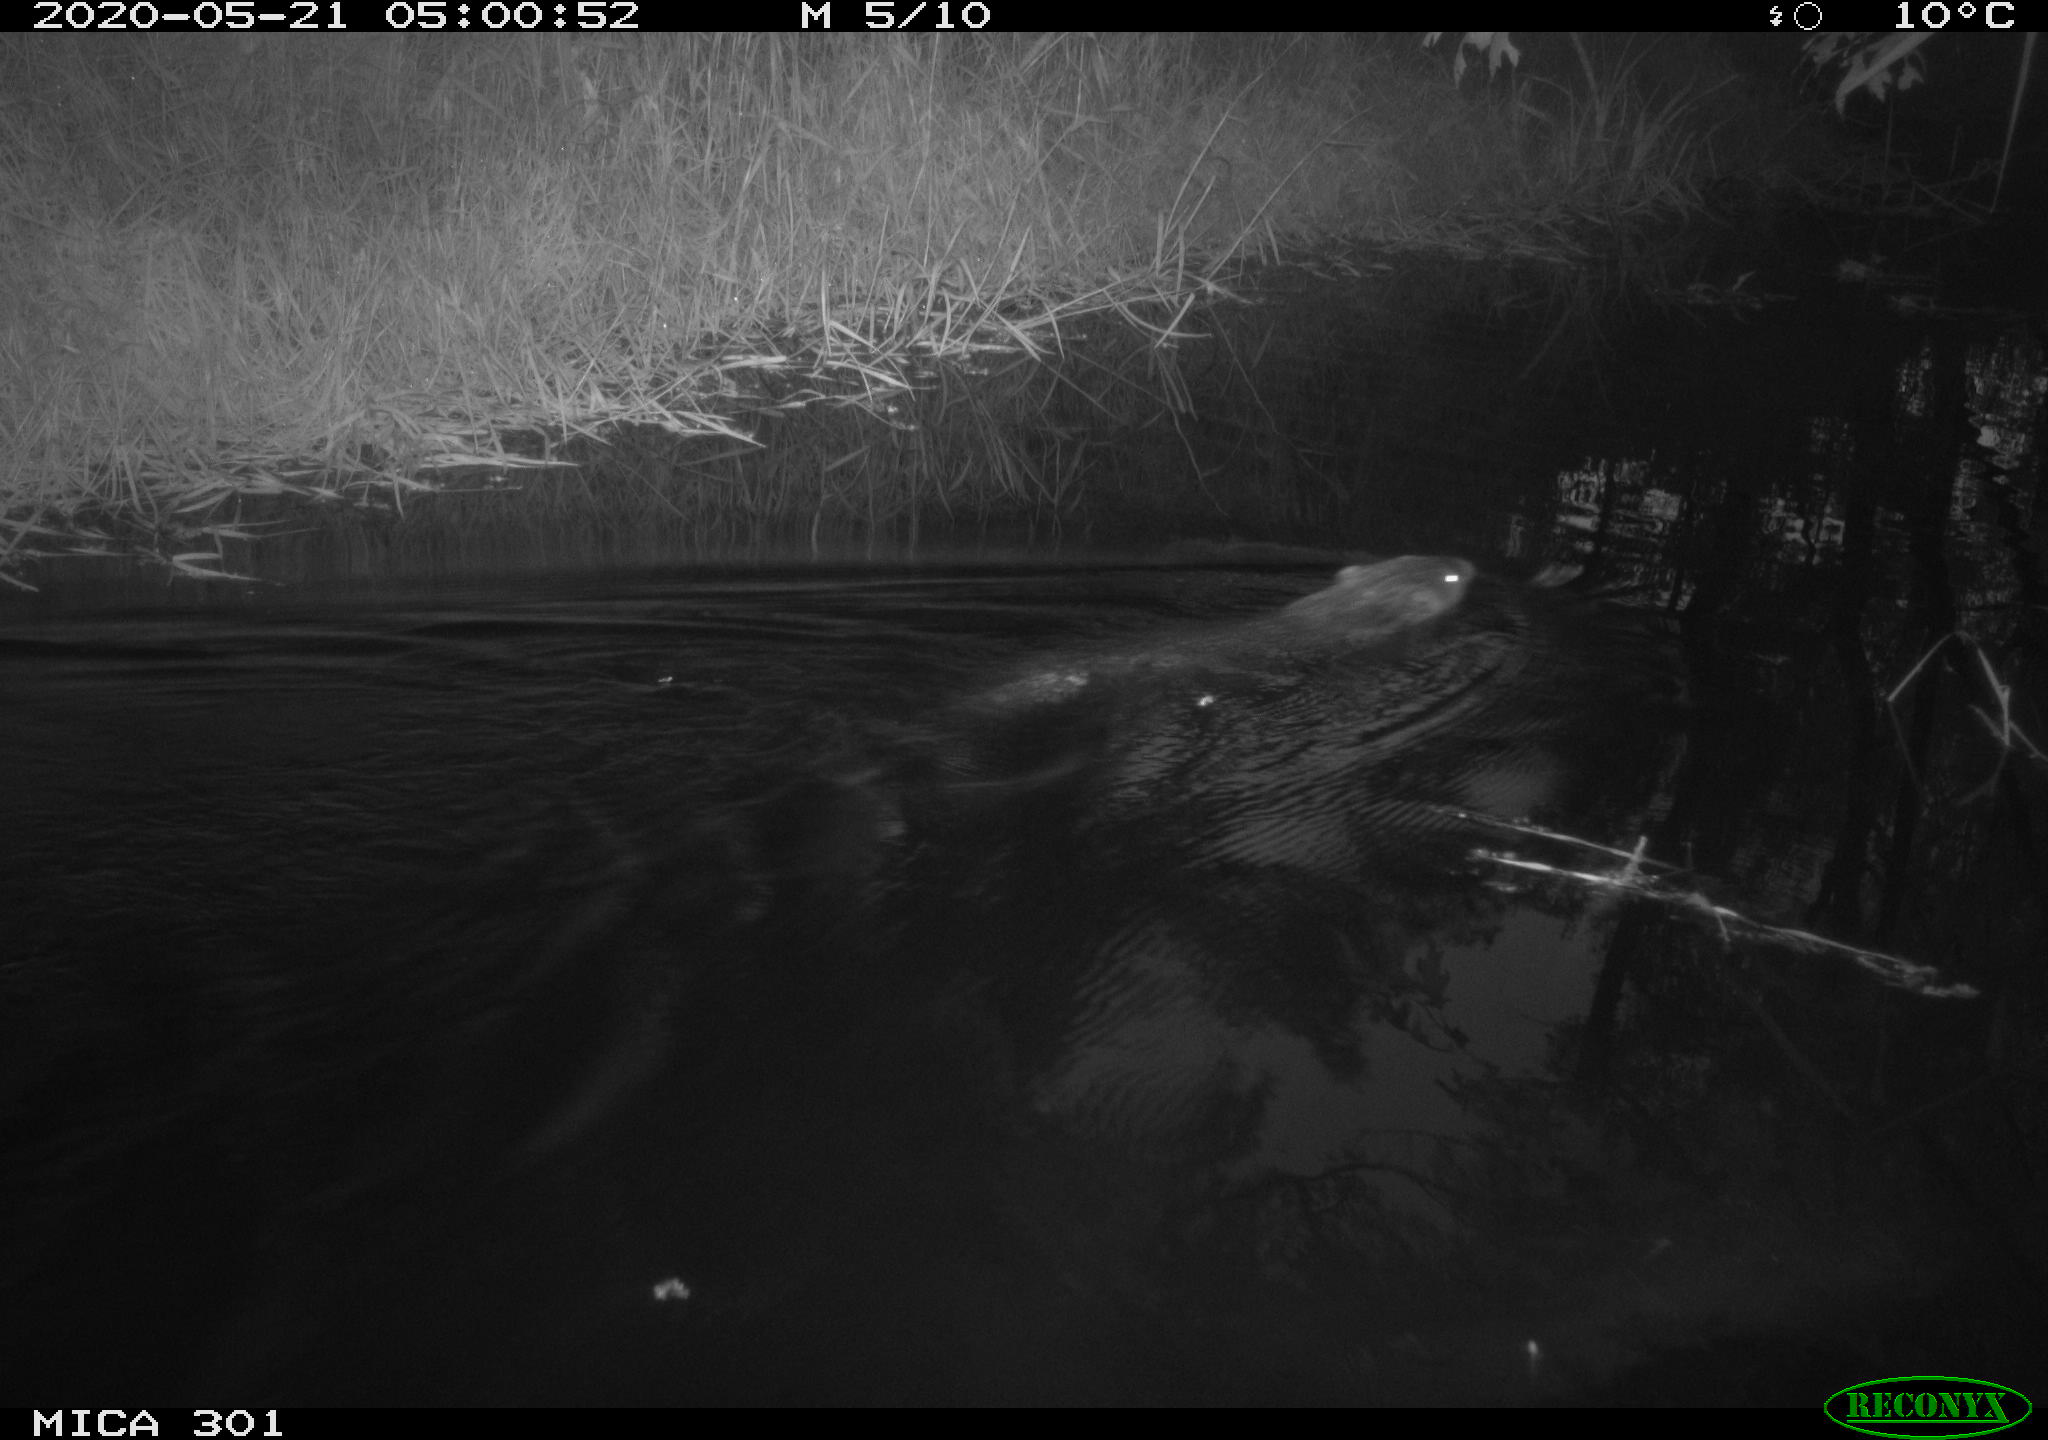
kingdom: Animalia
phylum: Chordata
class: Mammalia
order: Rodentia
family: Castoridae
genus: Castor
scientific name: Castor fiber
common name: Eurasian beaver
